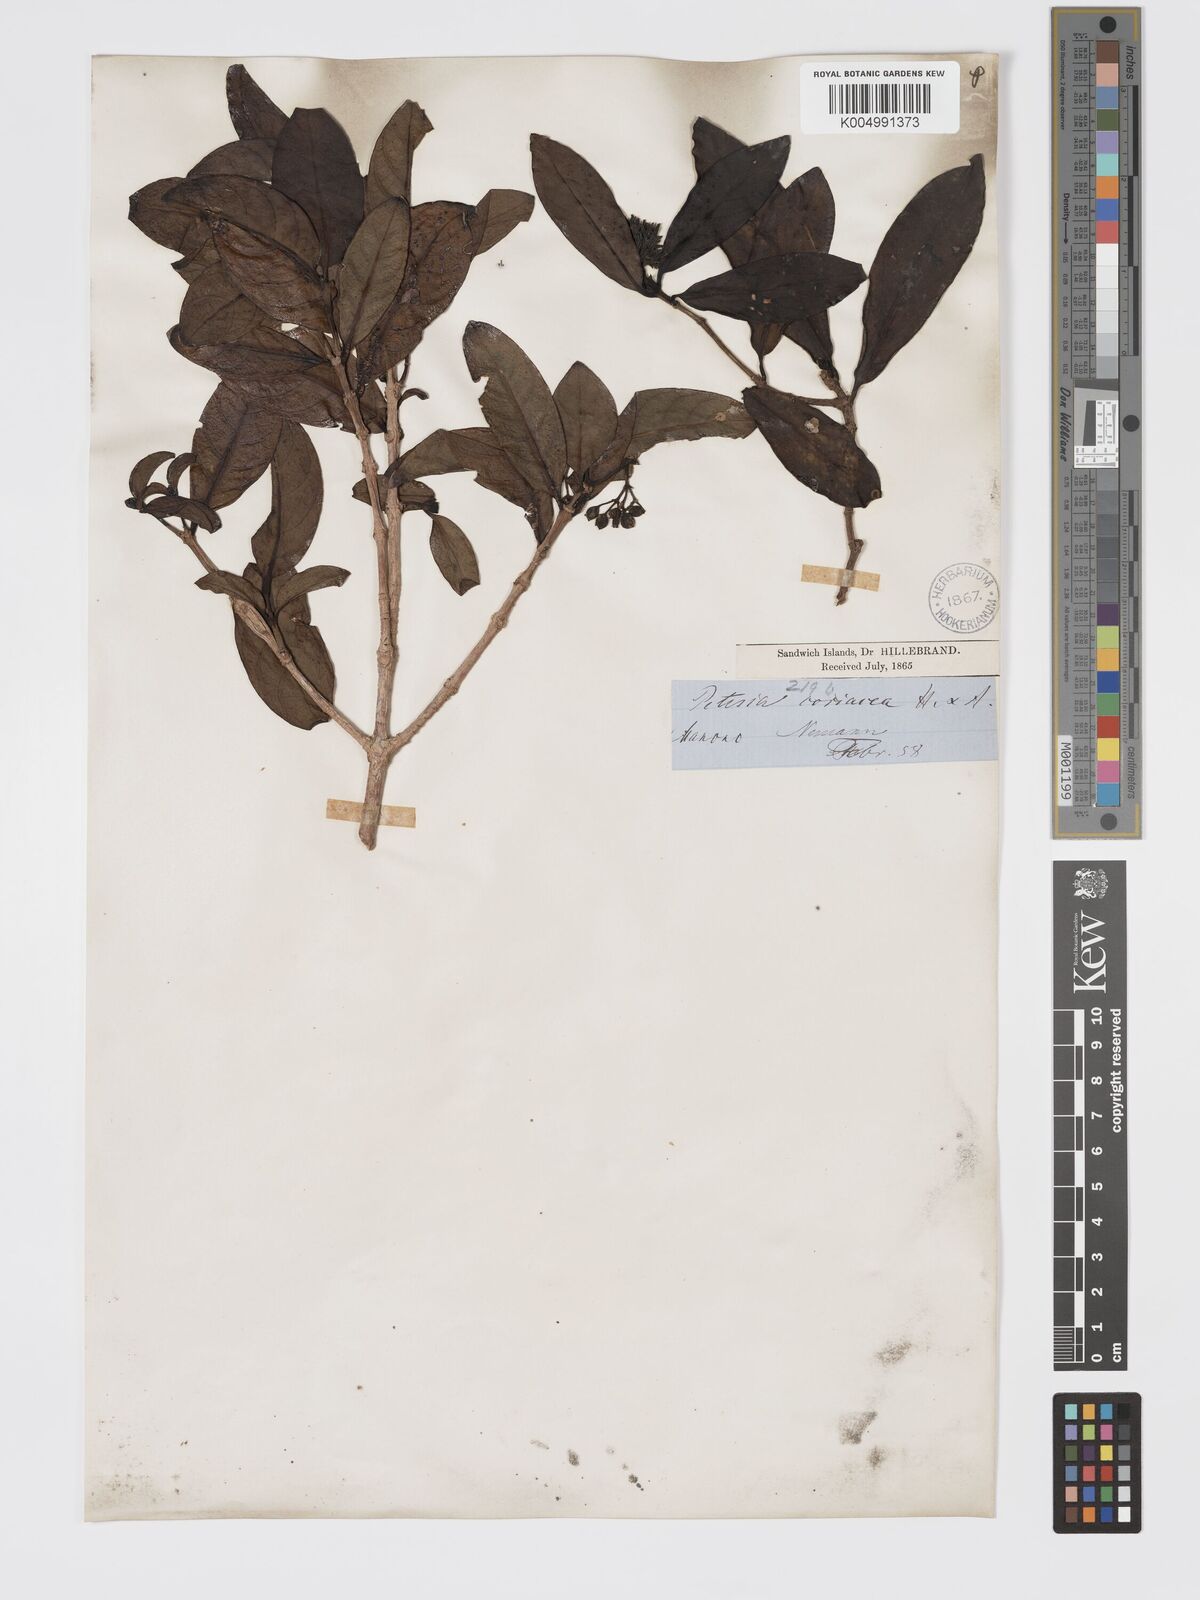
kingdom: Plantae
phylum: Tracheophyta
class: Magnoliopsida
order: Gentianales
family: Rubiaceae
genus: Kadua
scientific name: Kadua affinis
